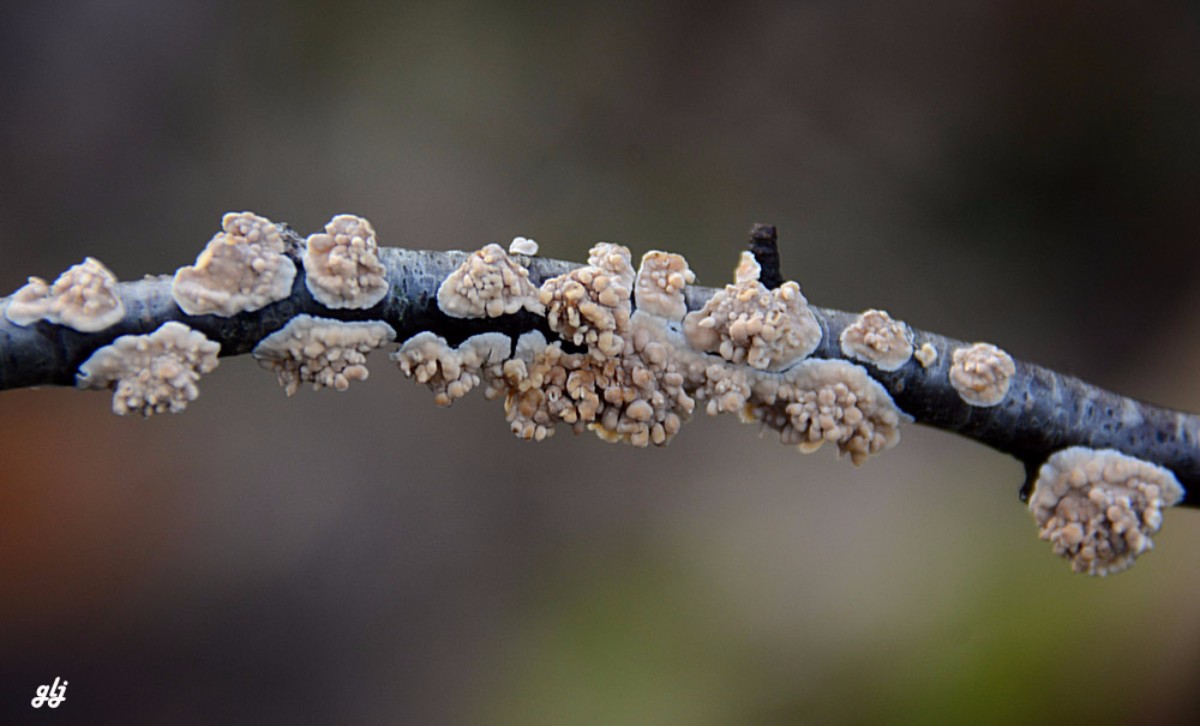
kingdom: Fungi
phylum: Basidiomycota
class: Agaricomycetes
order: Agaricales
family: Physalacriaceae
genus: Cylindrobasidium
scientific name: Cylindrobasidium evolvens
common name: sprækkehinde
